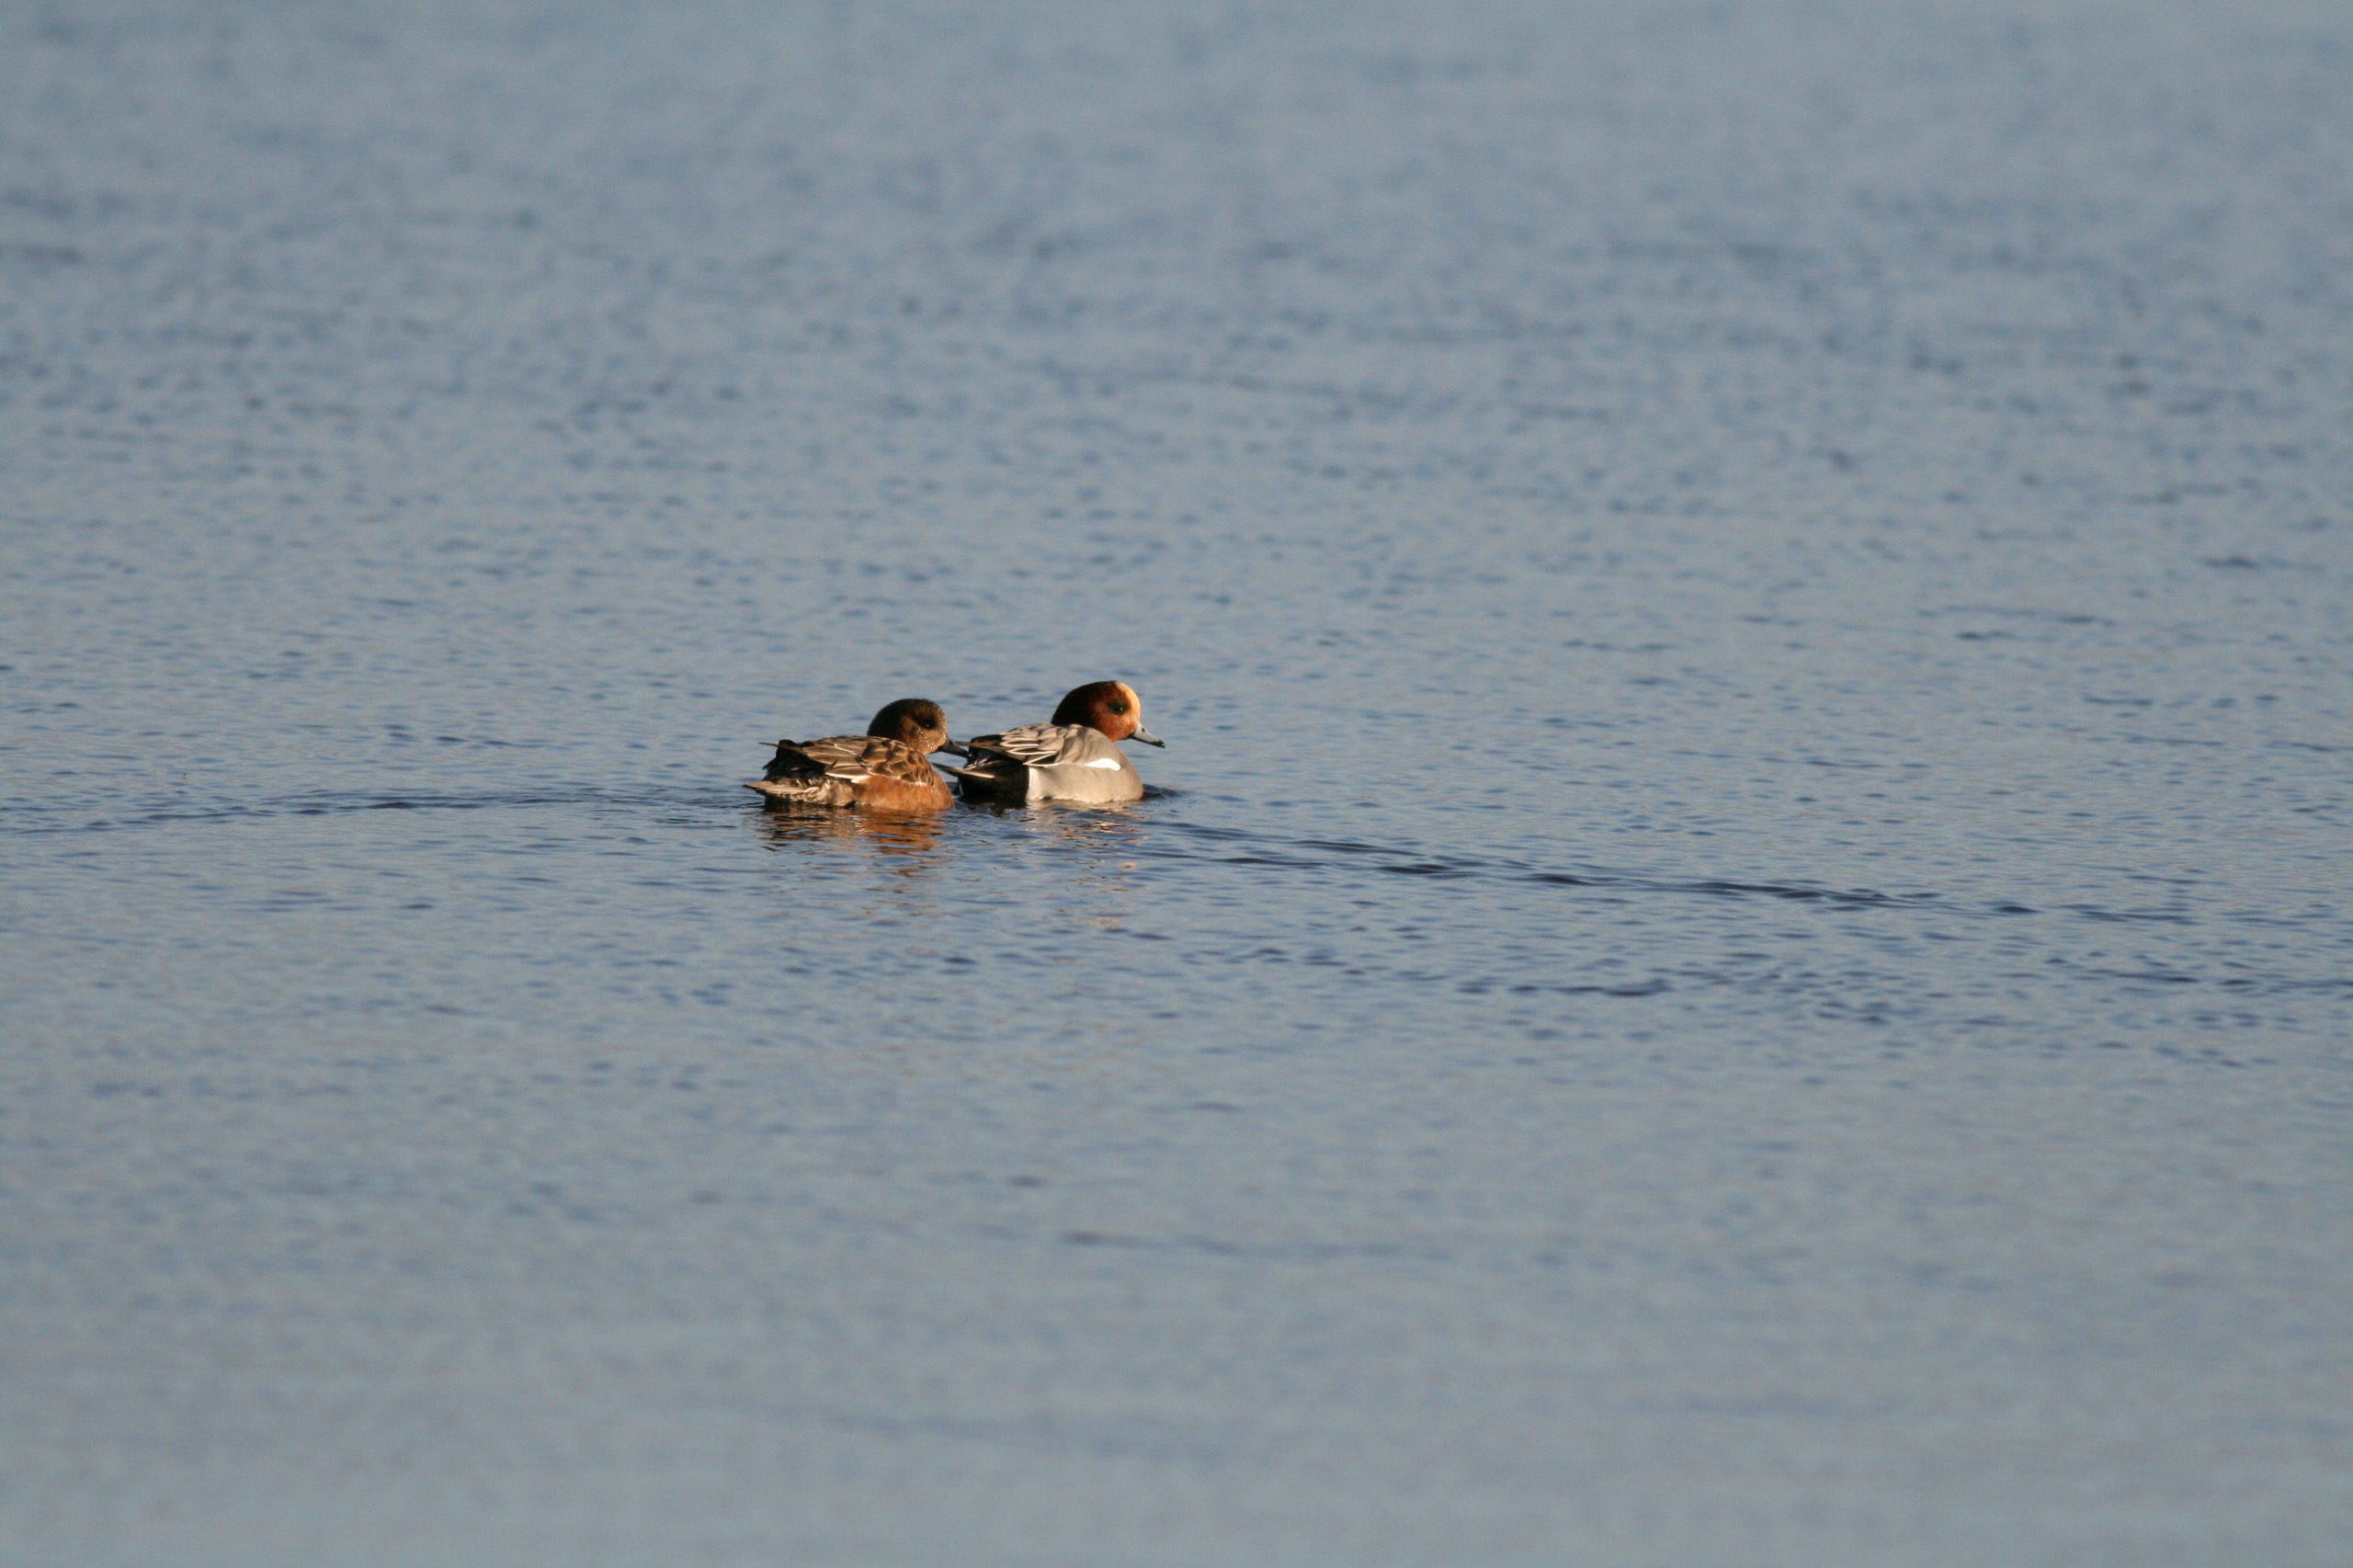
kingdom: Animalia
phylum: Chordata
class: Aves
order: Anseriformes
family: Anatidae
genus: Mareca
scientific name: Mareca penelope
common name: Pibeand
